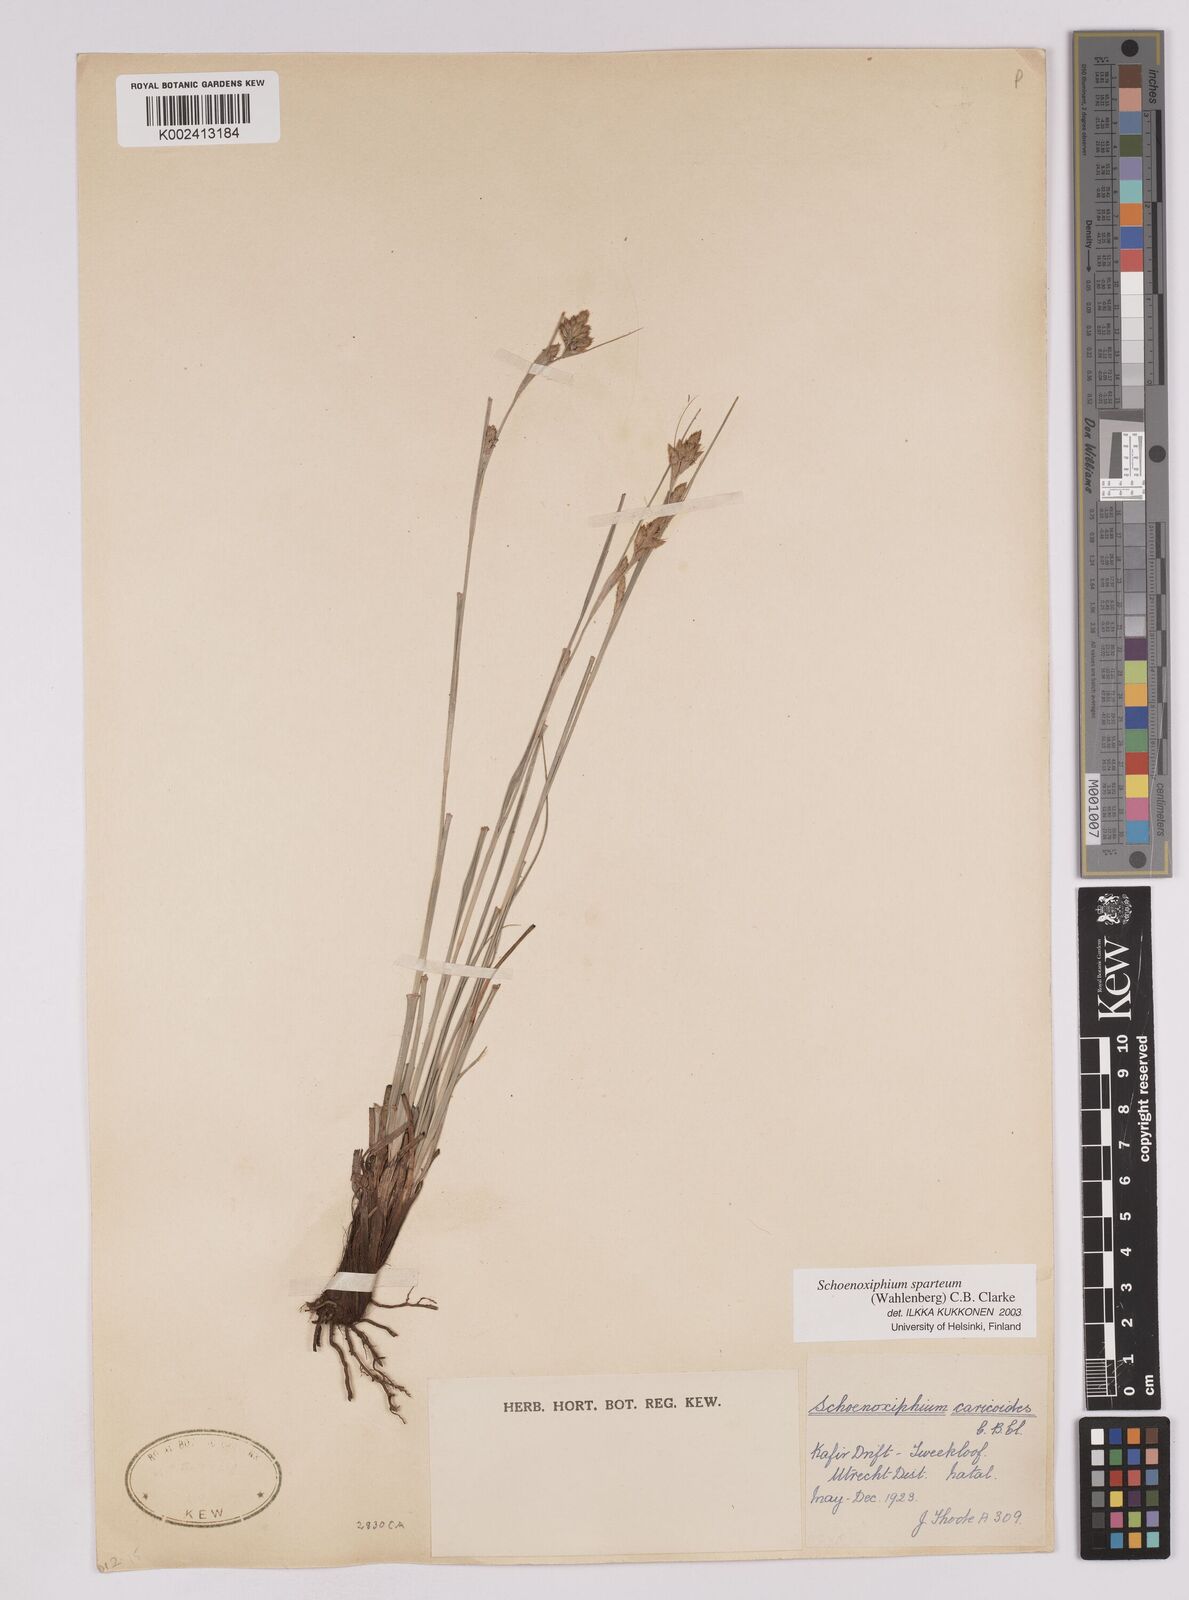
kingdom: Plantae
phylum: Tracheophyta
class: Liliopsida
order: Poales
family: Cyperaceae
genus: Carex
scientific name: Carex spartea
